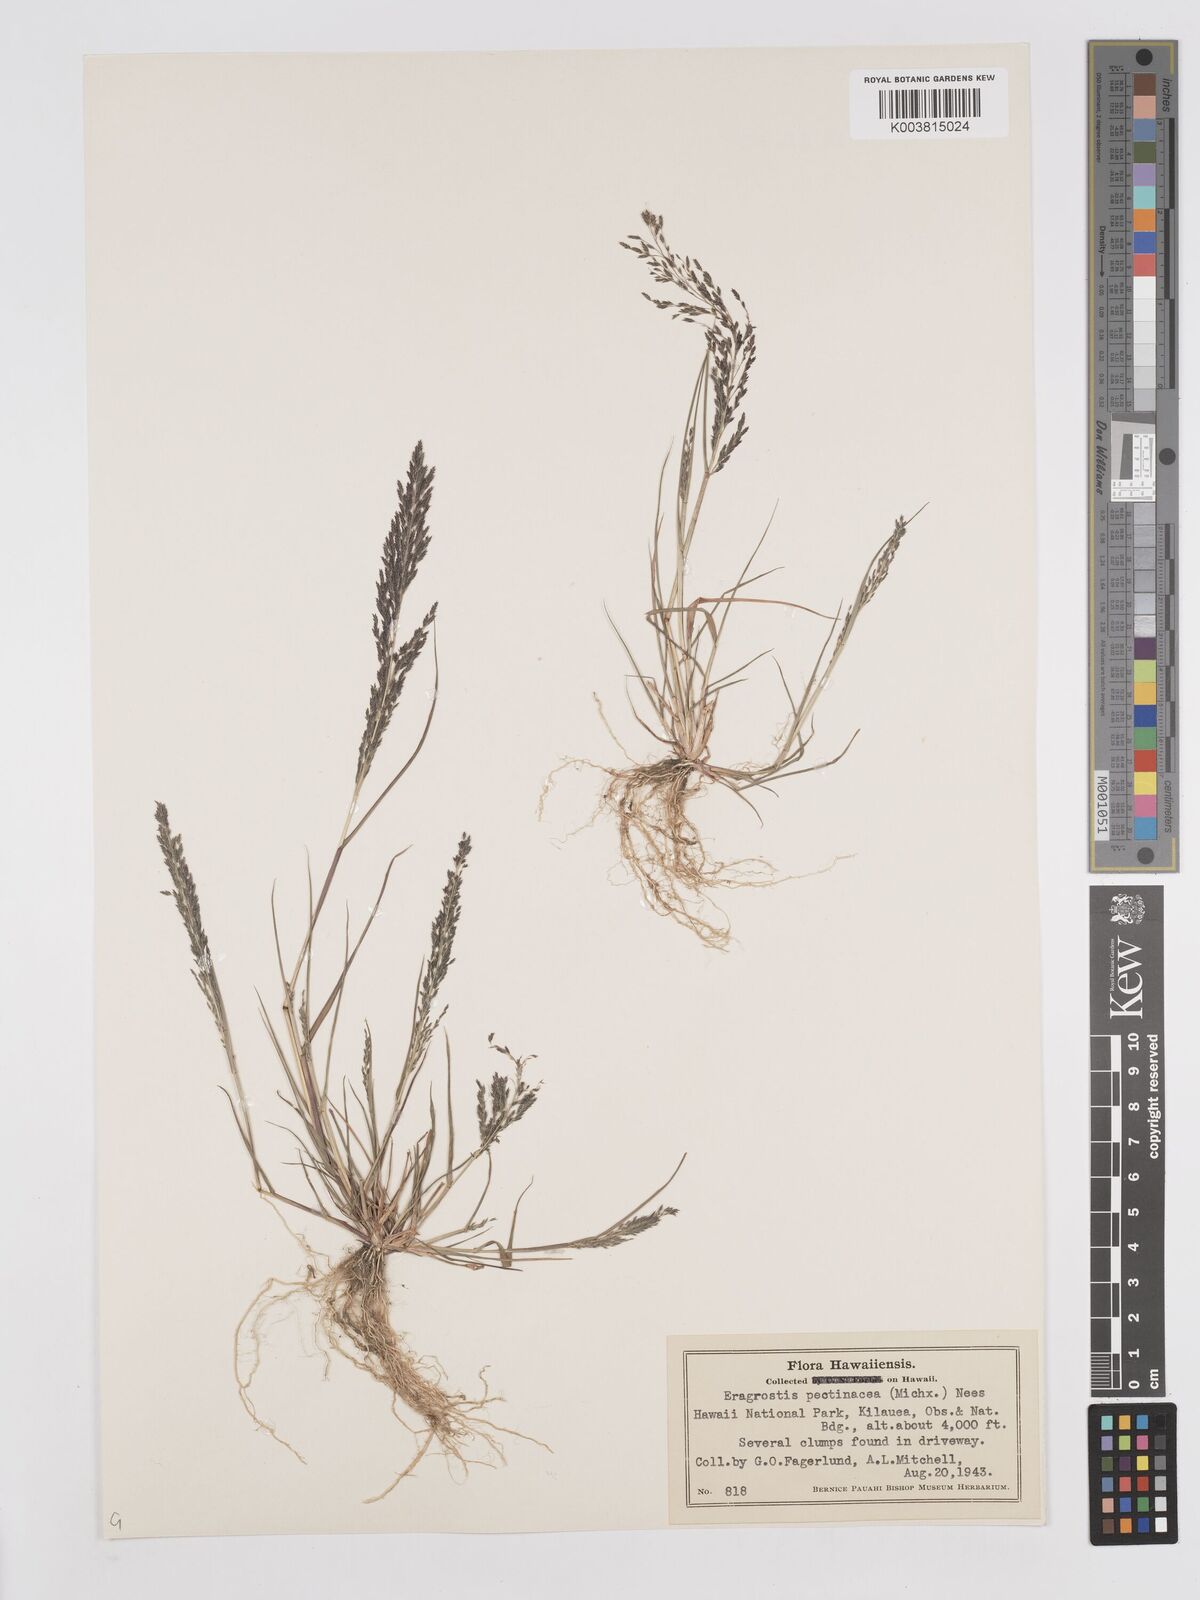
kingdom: Plantae
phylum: Tracheophyta
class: Liliopsida
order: Poales
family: Poaceae
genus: Eragrostis
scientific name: Eragrostis pectinacea
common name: Tufted lovegrass
